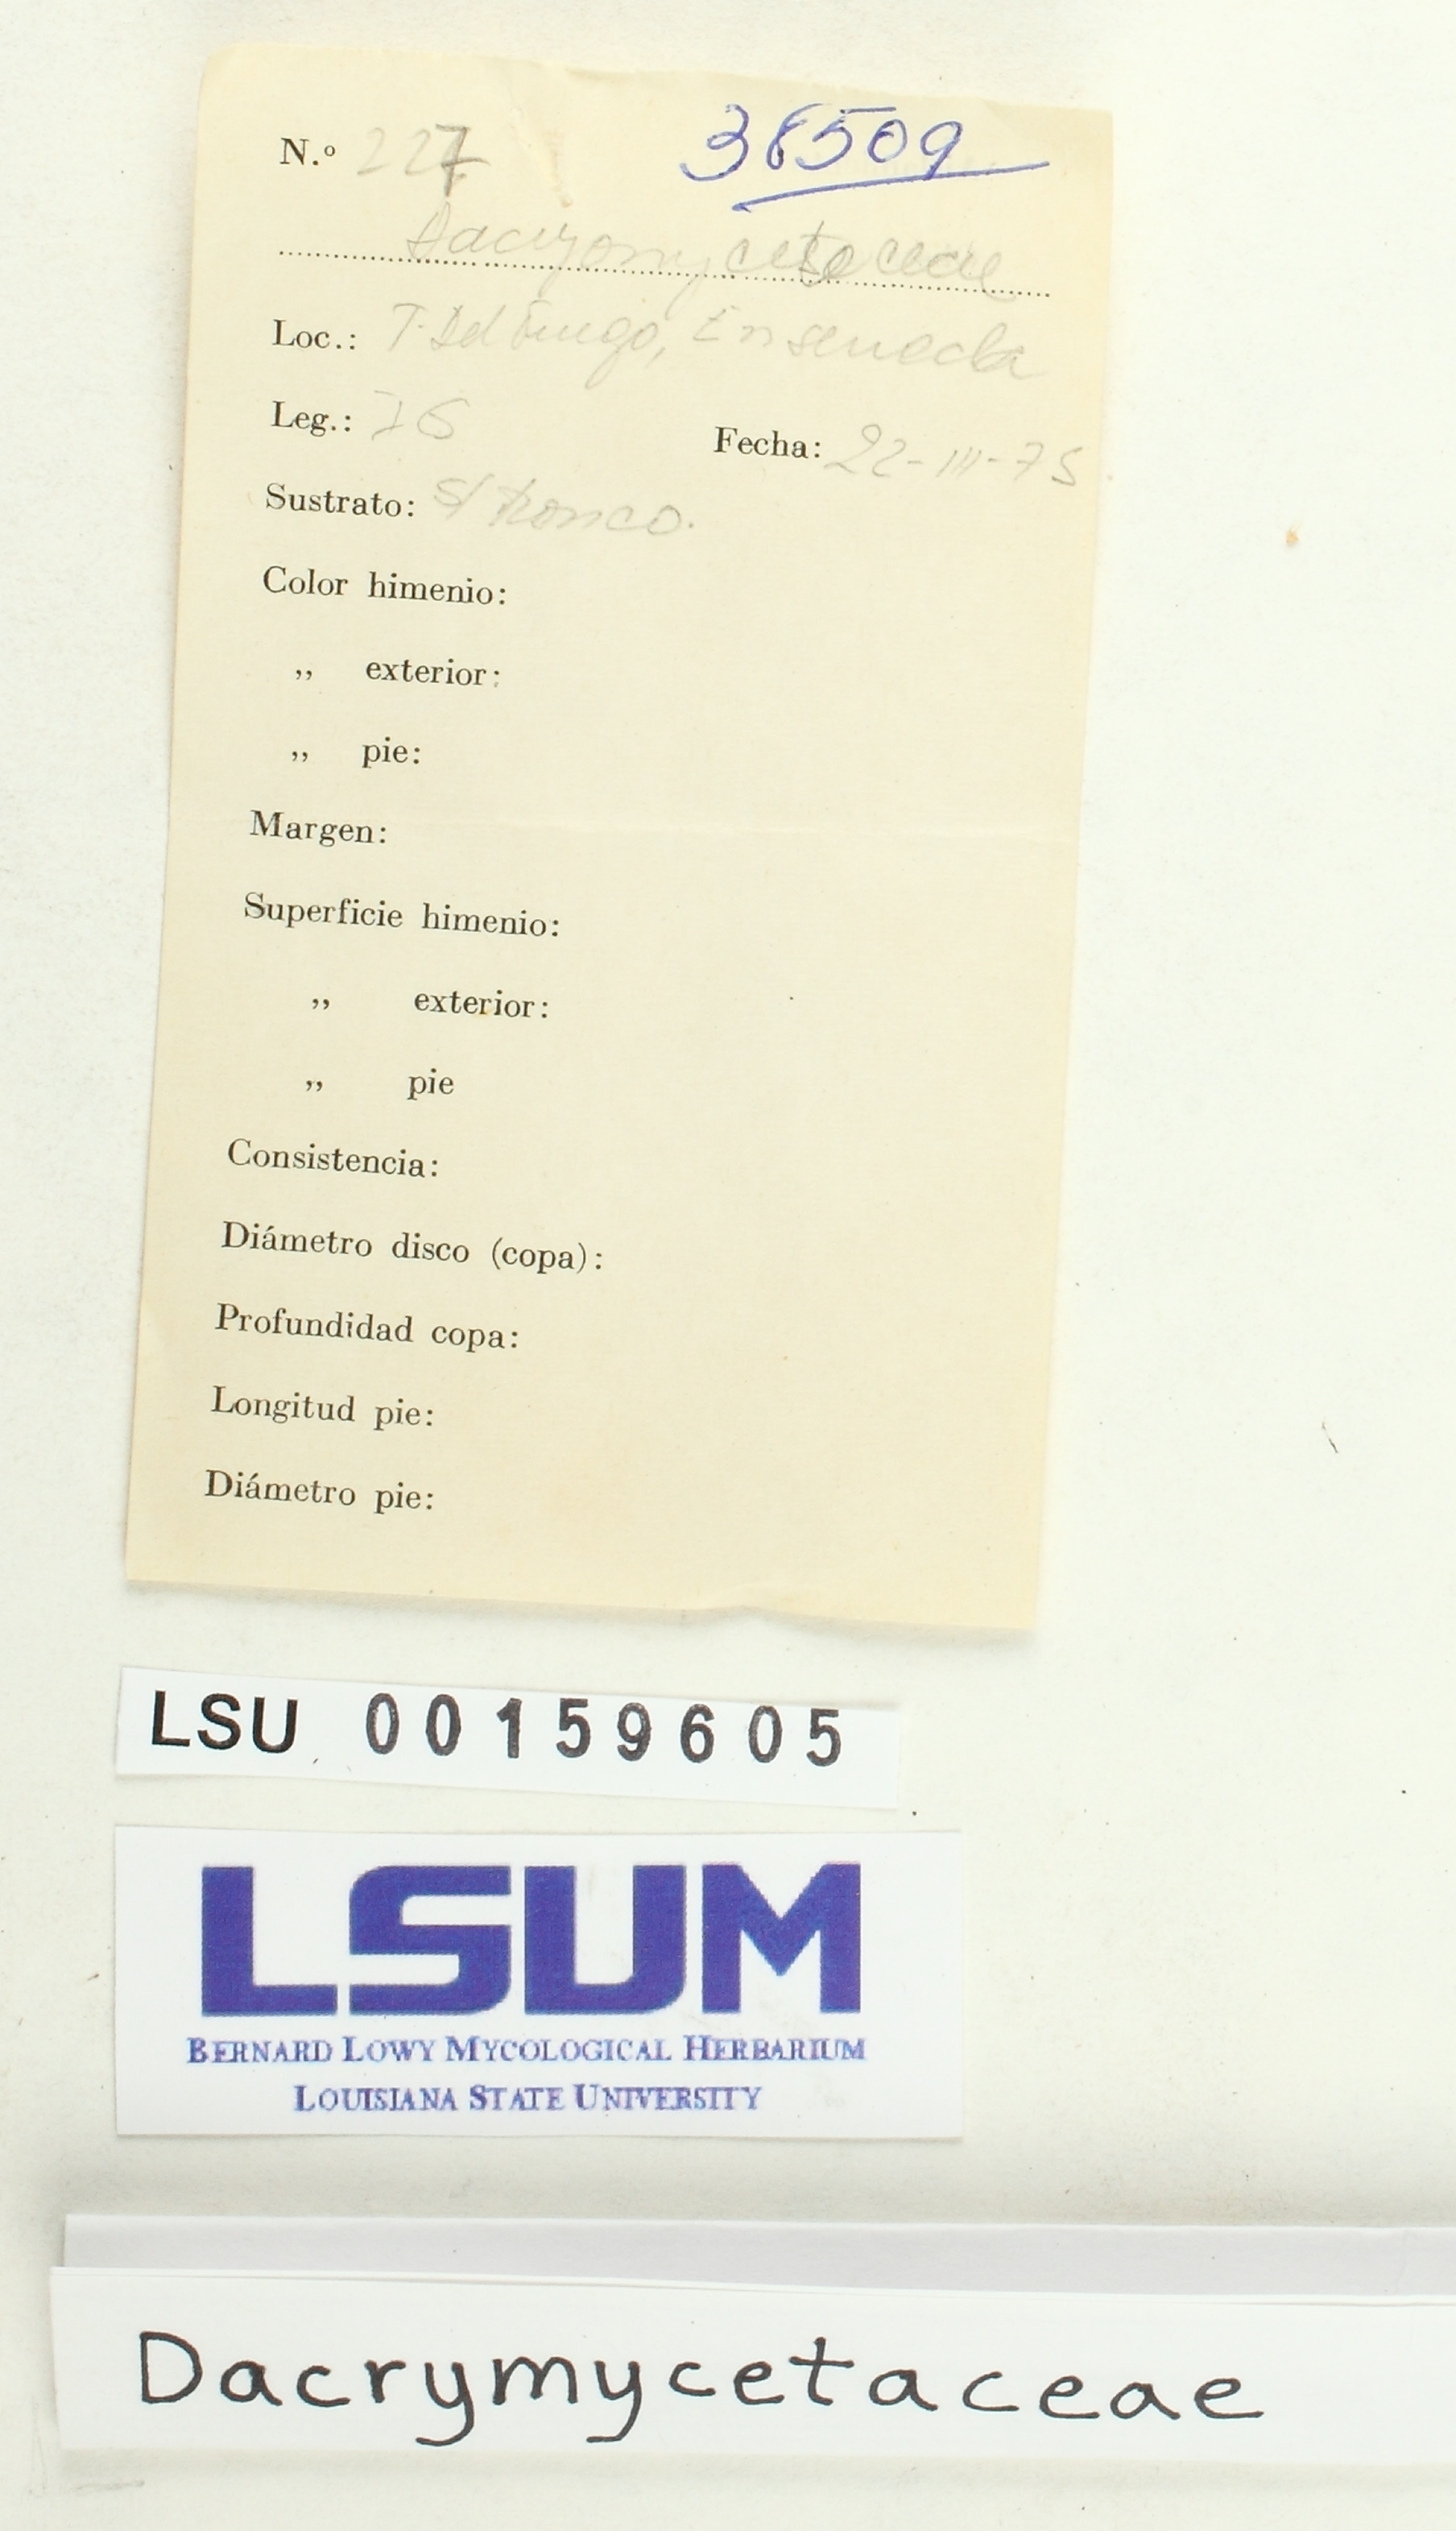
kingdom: Fungi
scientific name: Fungi
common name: Fungi
